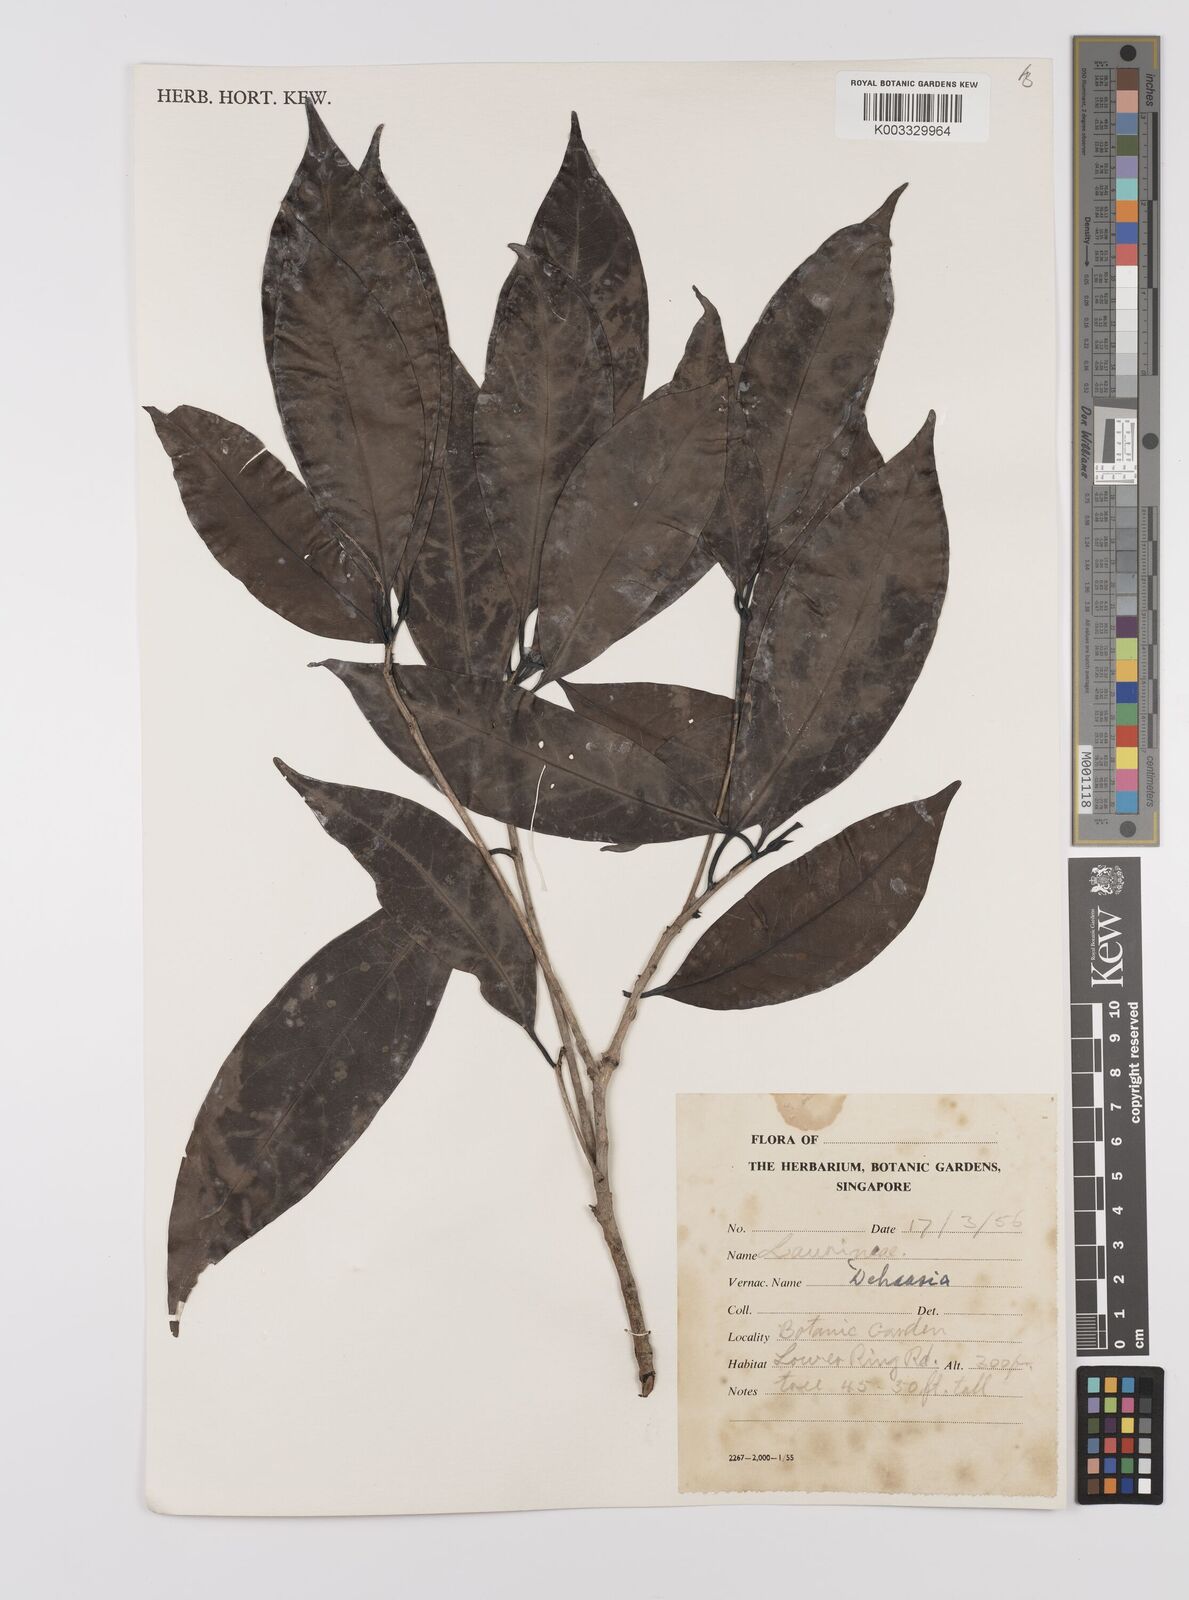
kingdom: Plantae
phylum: Tracheophyta
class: Magnoliopsida
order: Laurales
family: Lauraceae
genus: Dehaasia
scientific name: Dehaasia
